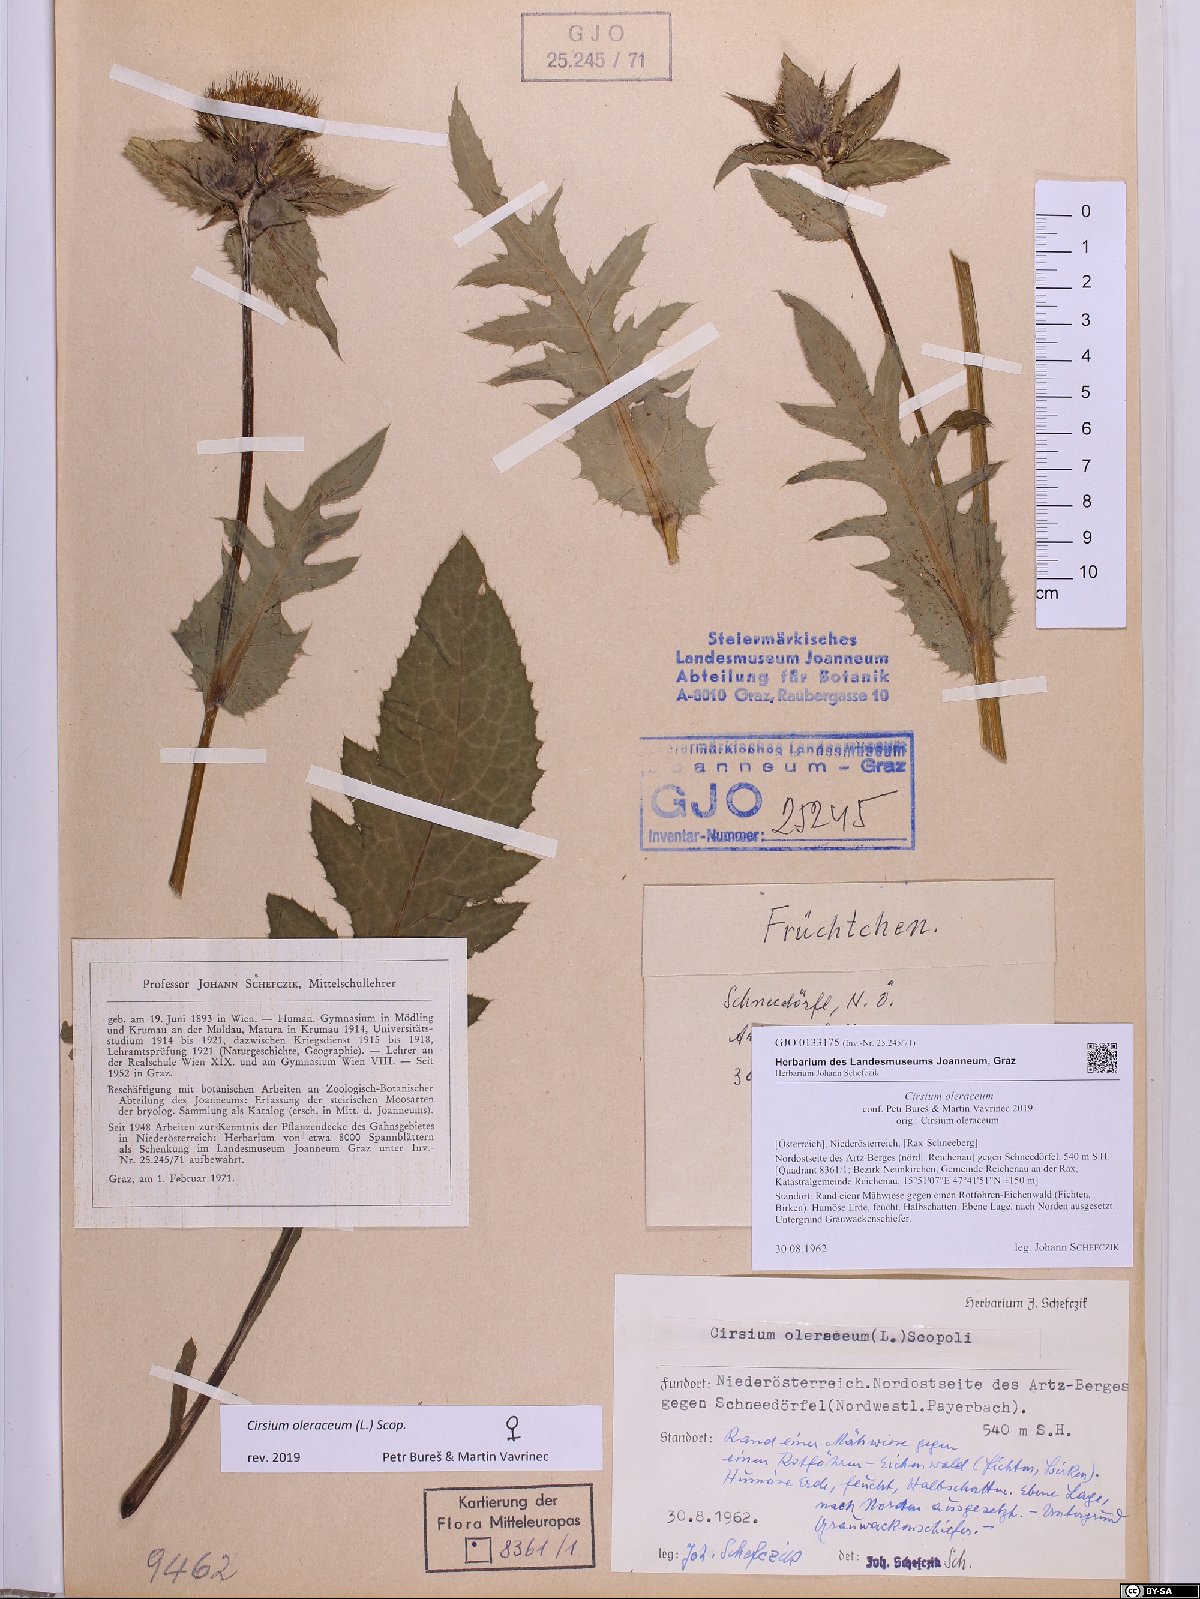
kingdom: Plantae
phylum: Tracheophyta
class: Magnoliopsida
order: Asterales
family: Asteraceae
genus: Cirsium
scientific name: Cirsium oleraceum
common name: Cabbage thistle
